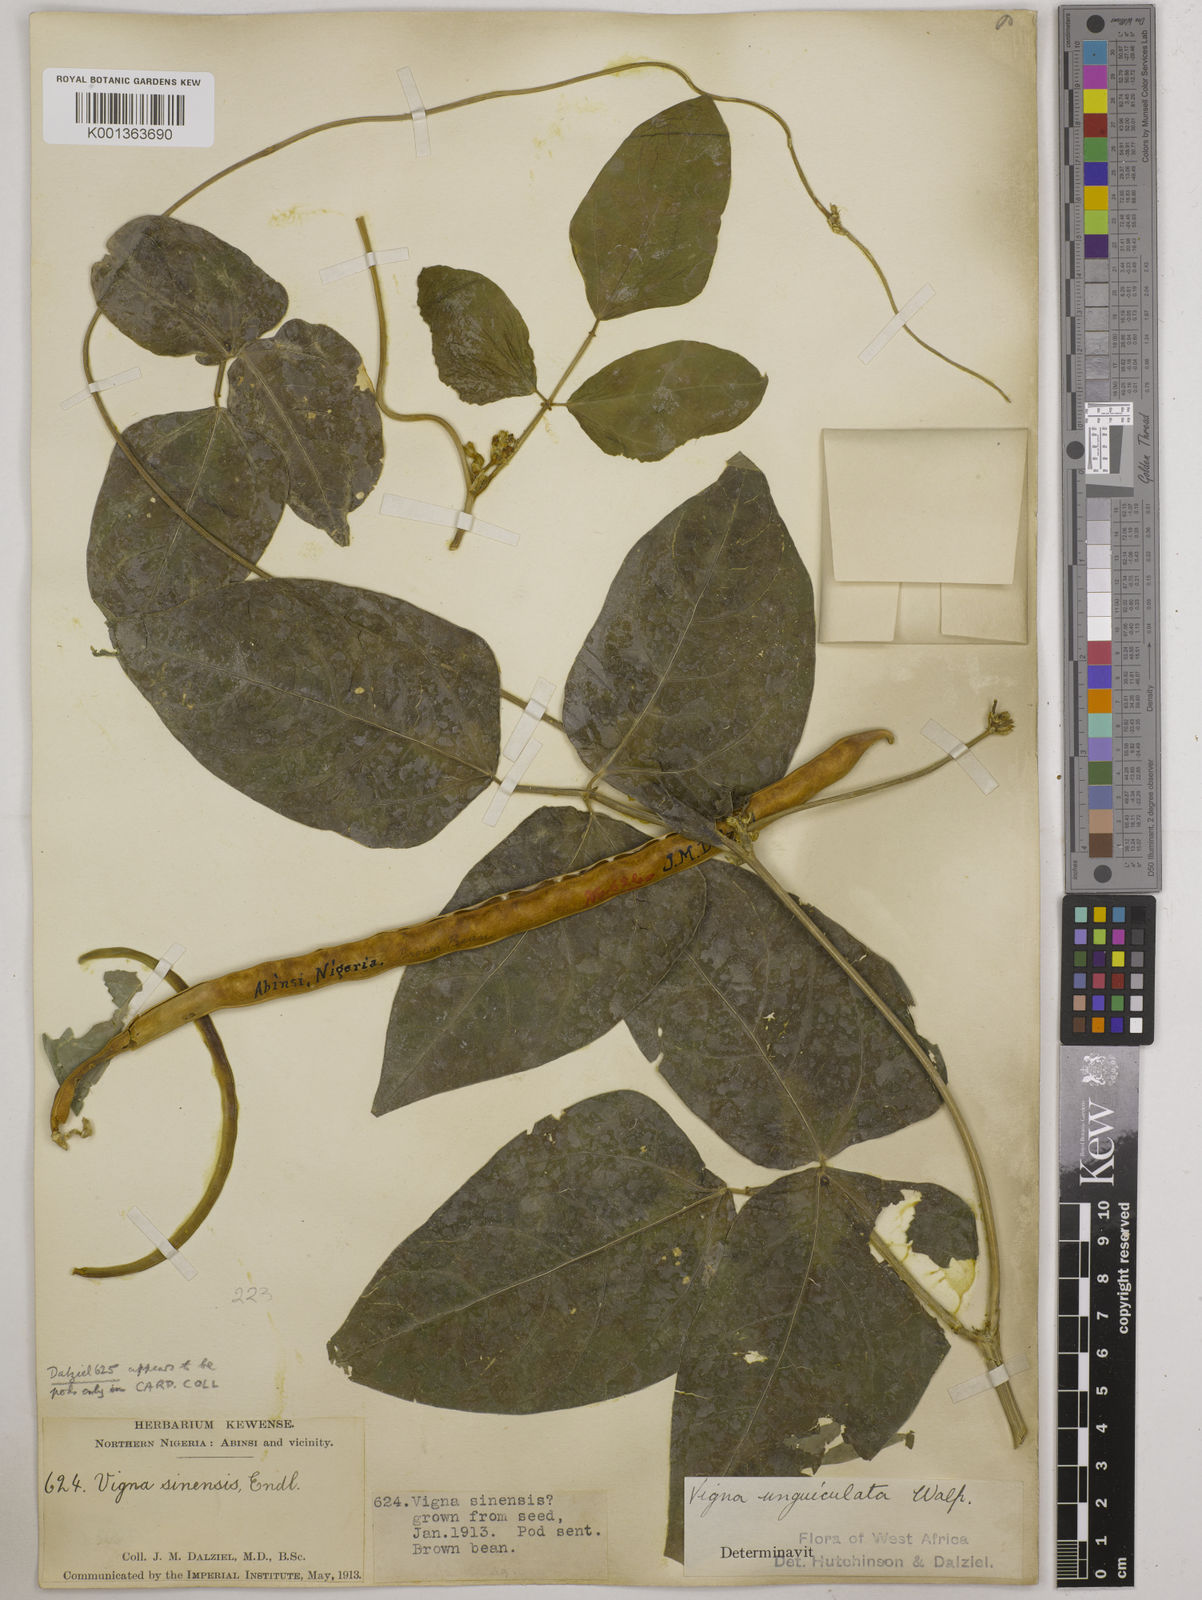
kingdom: Plantae
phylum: Tracheophyta
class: Magnoliopsida
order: Fabales
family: Fabaceae
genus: Vigna
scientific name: Vigna unguiculata
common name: Cowpea
